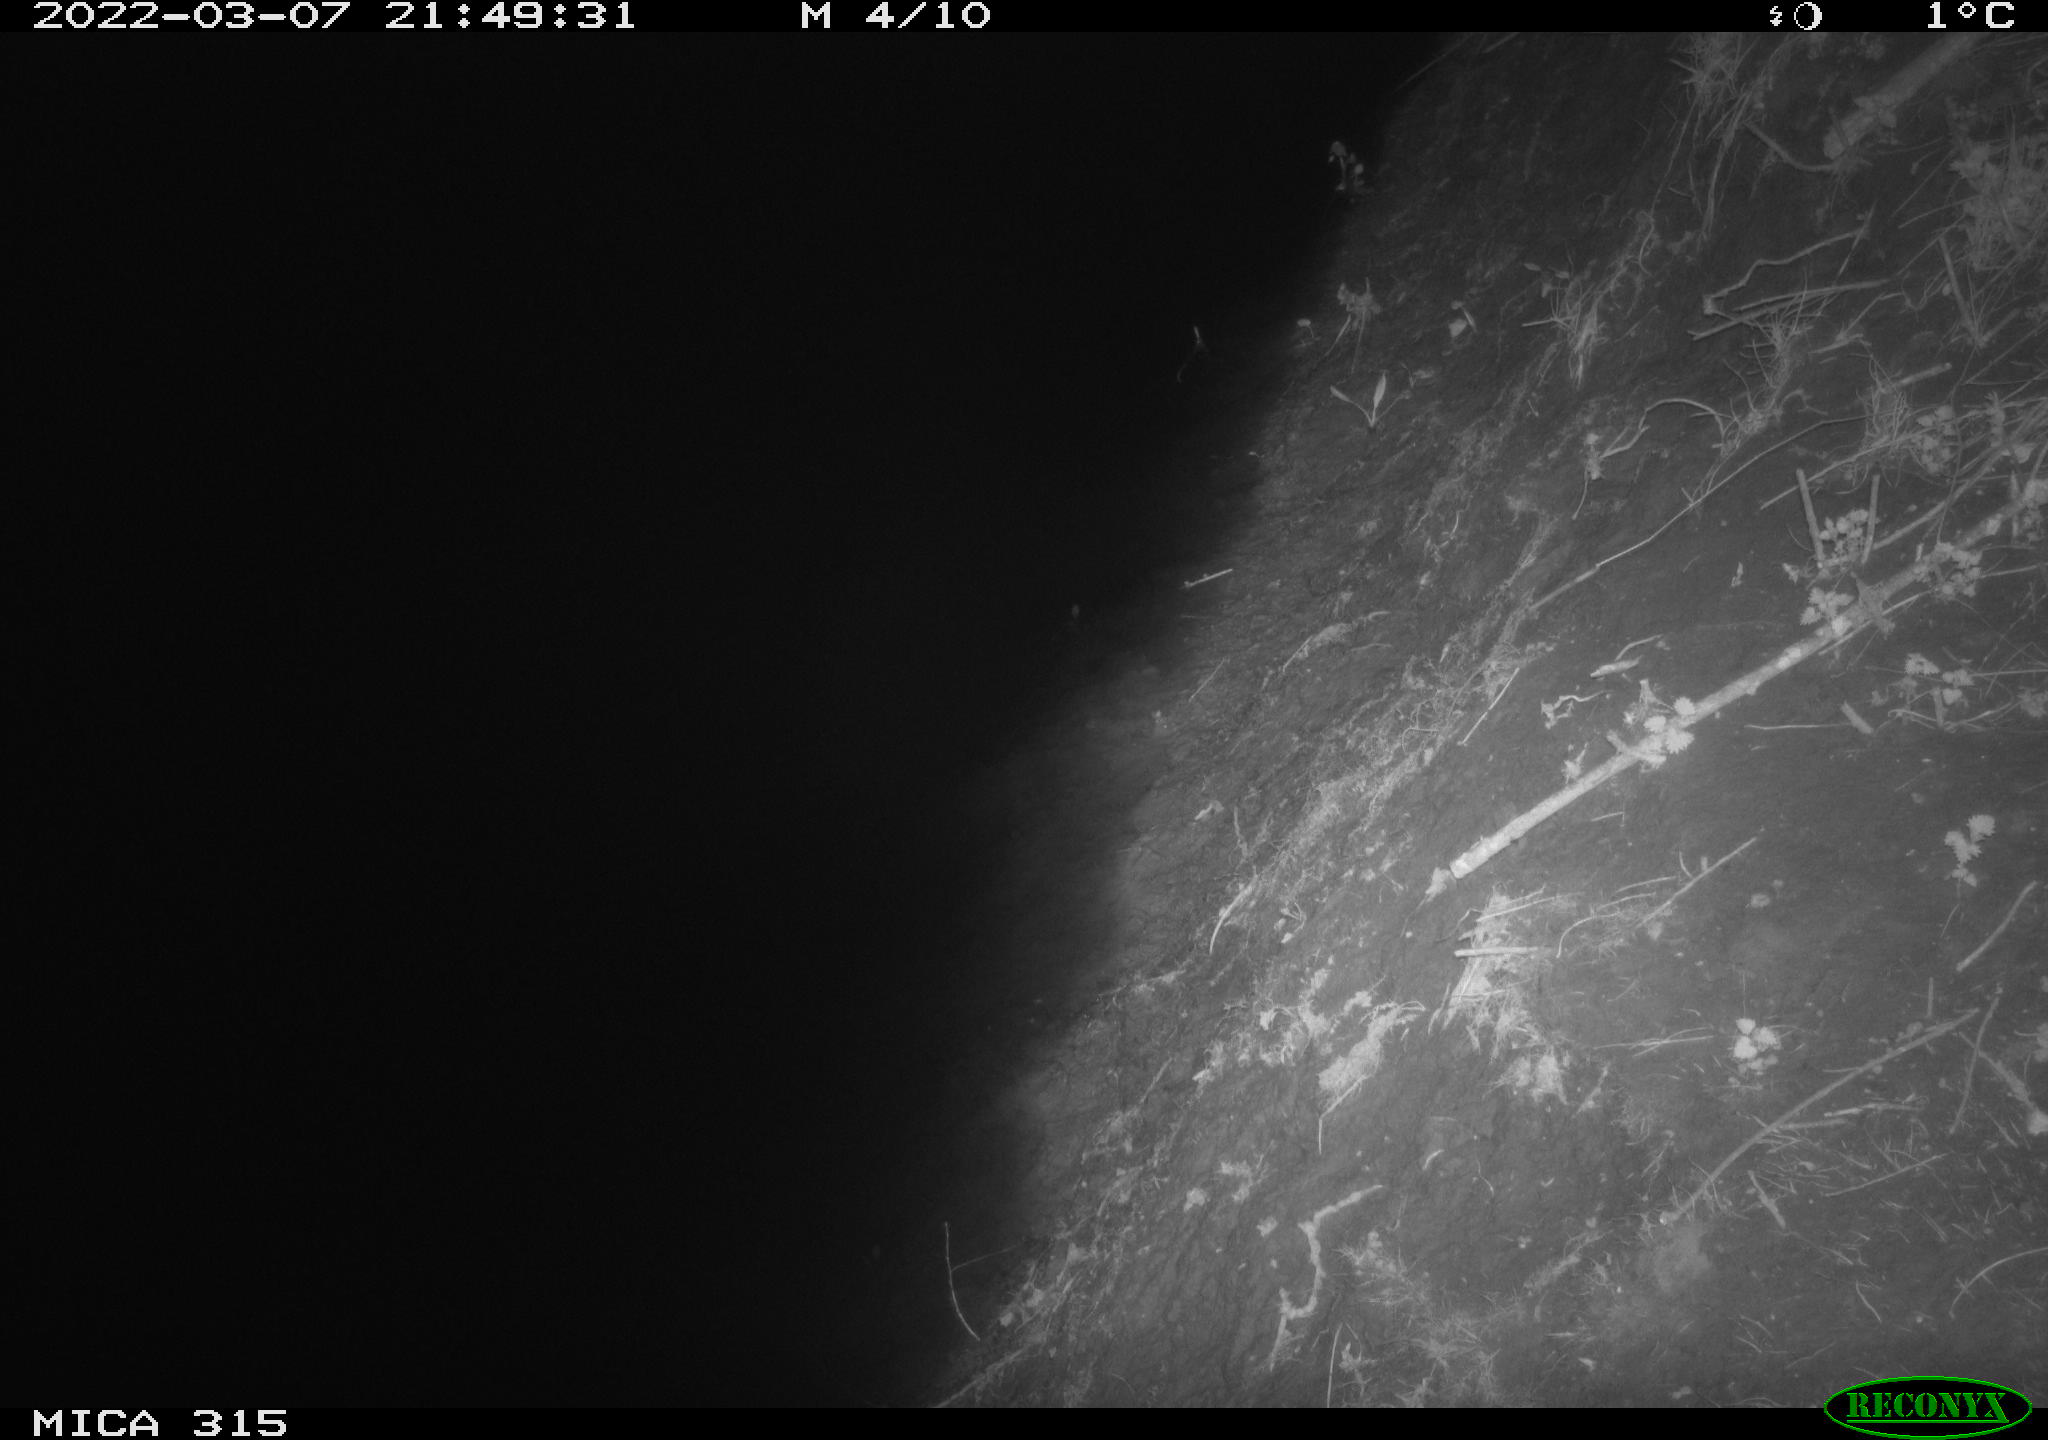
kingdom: Animalia
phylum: Chordata
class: Mammalia
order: Rodentia
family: Muridae
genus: Rattus
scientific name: Rattus norvegicus
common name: Brown rat
